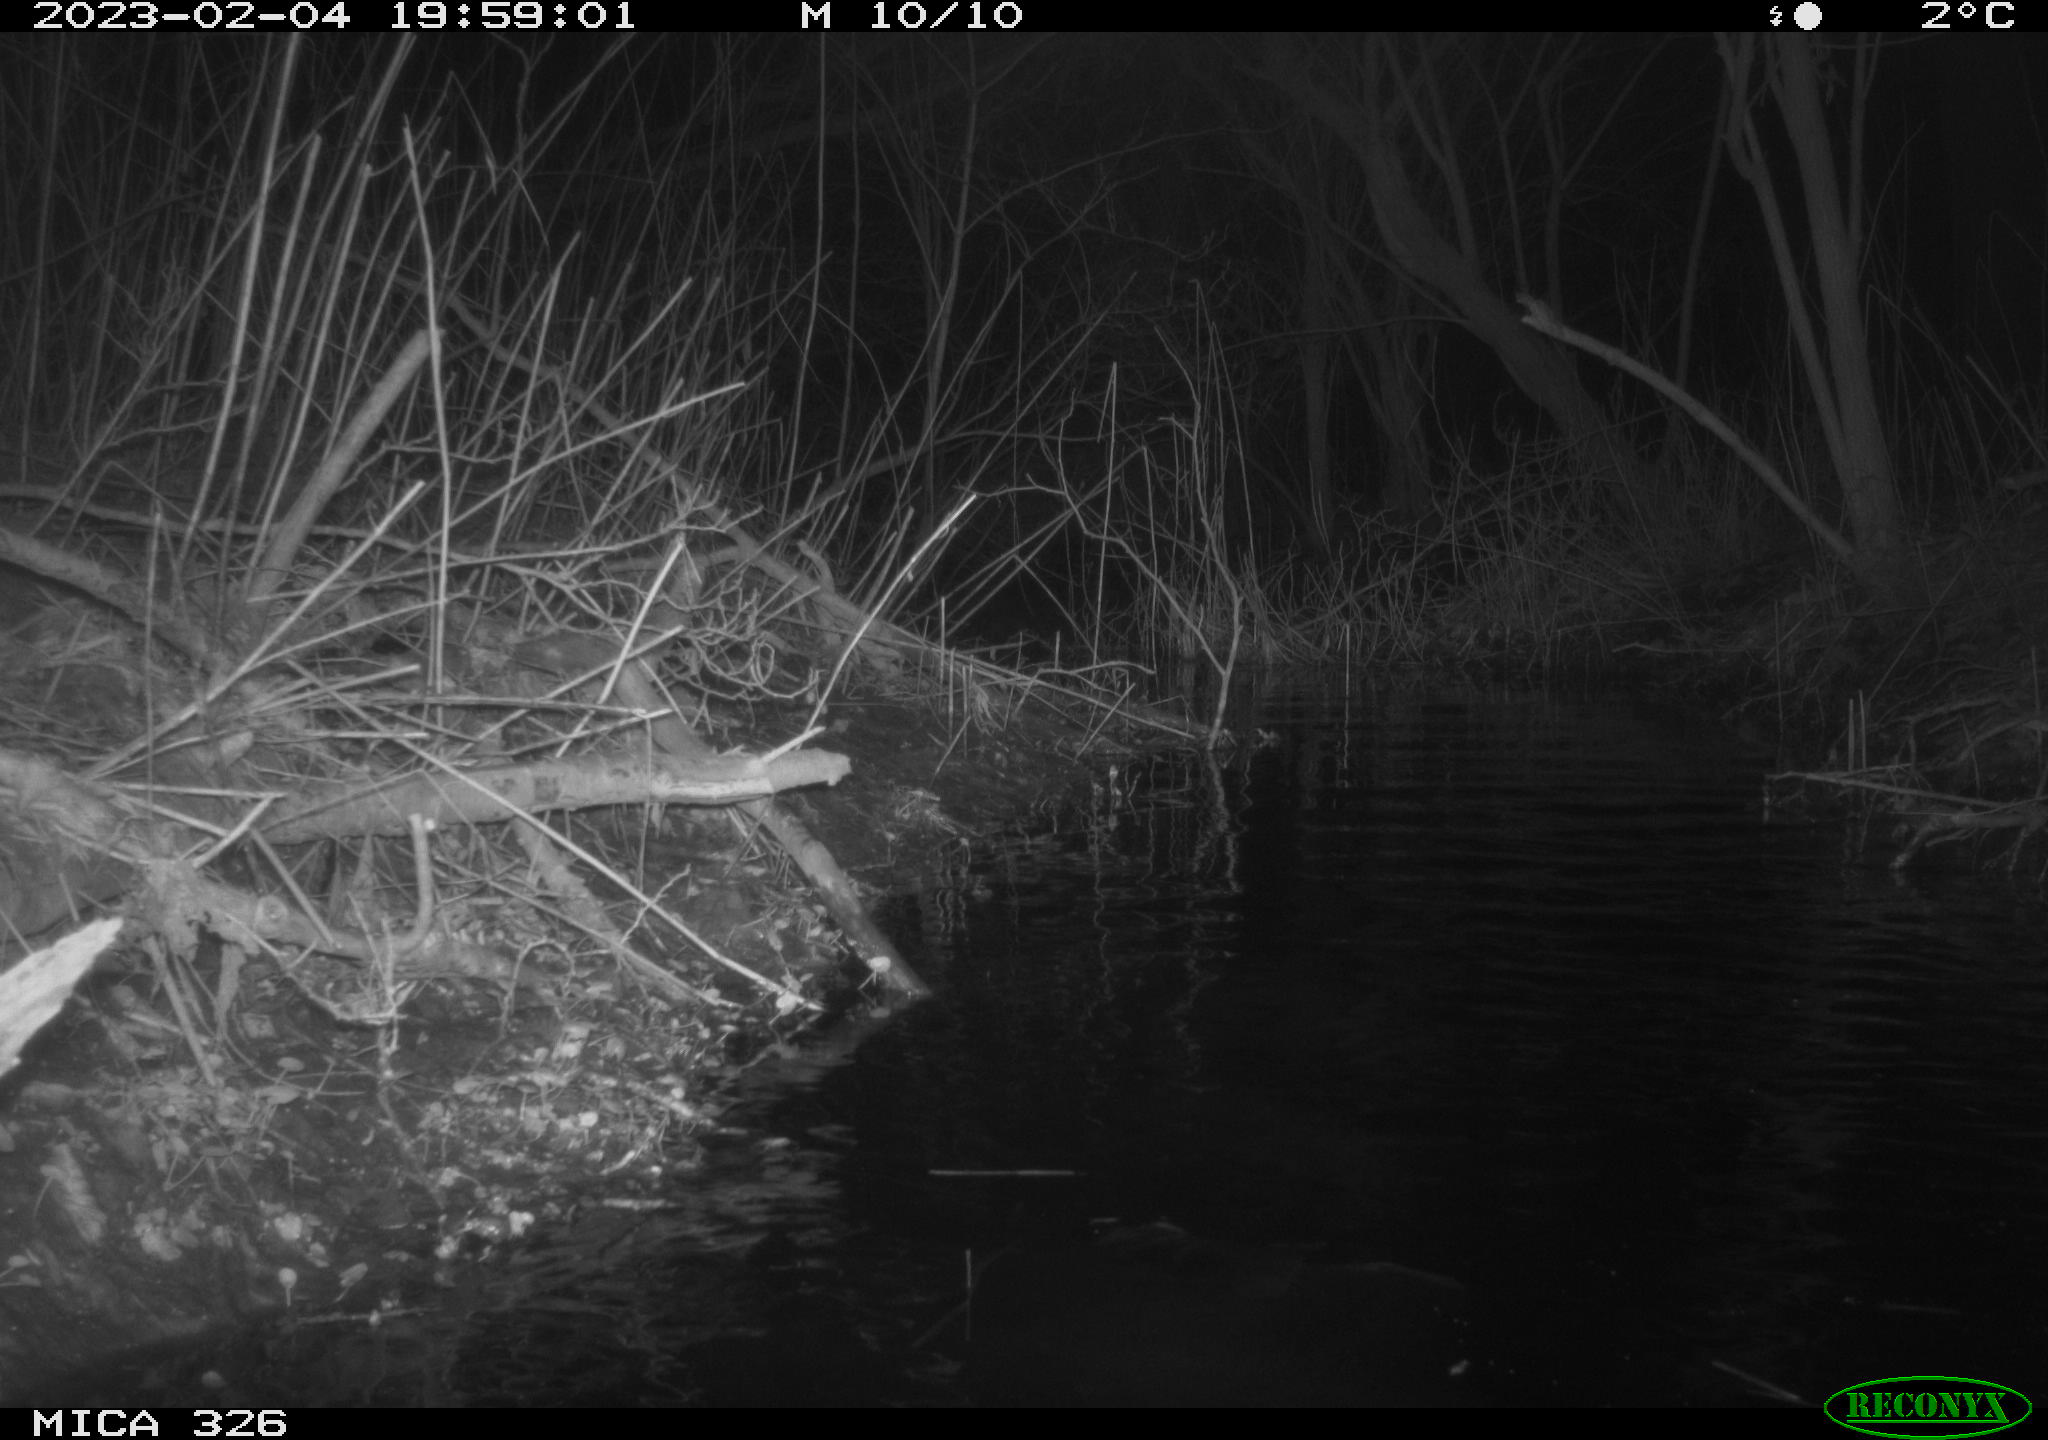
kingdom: Animalia
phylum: Chordata
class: Mammalia
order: Carnivora
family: Mustelidae
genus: Lutra
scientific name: Lutra lutra
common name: European otter
